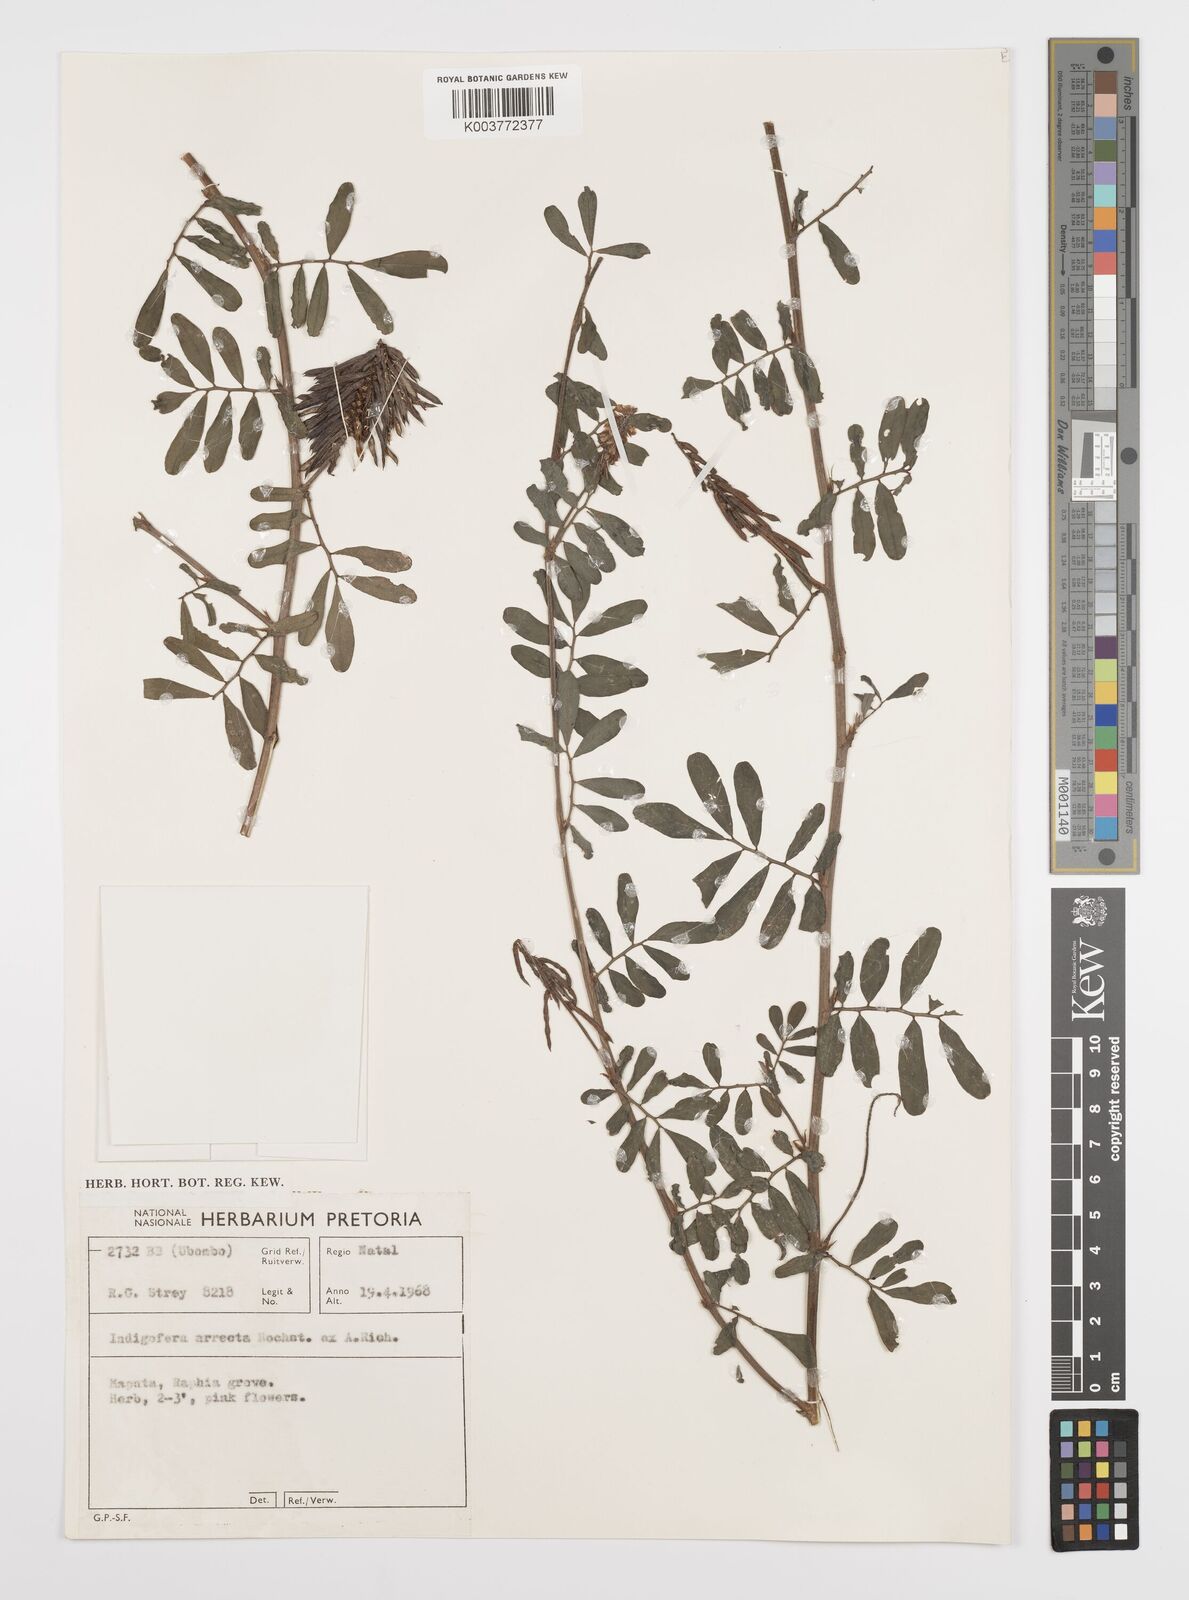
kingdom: Plantae
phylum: Tracheophyta
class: Magnoliopsida
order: Fabales
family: Fabaceae
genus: Indigofera
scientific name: Indigofera hendecaphylla
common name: Trailing indigo
